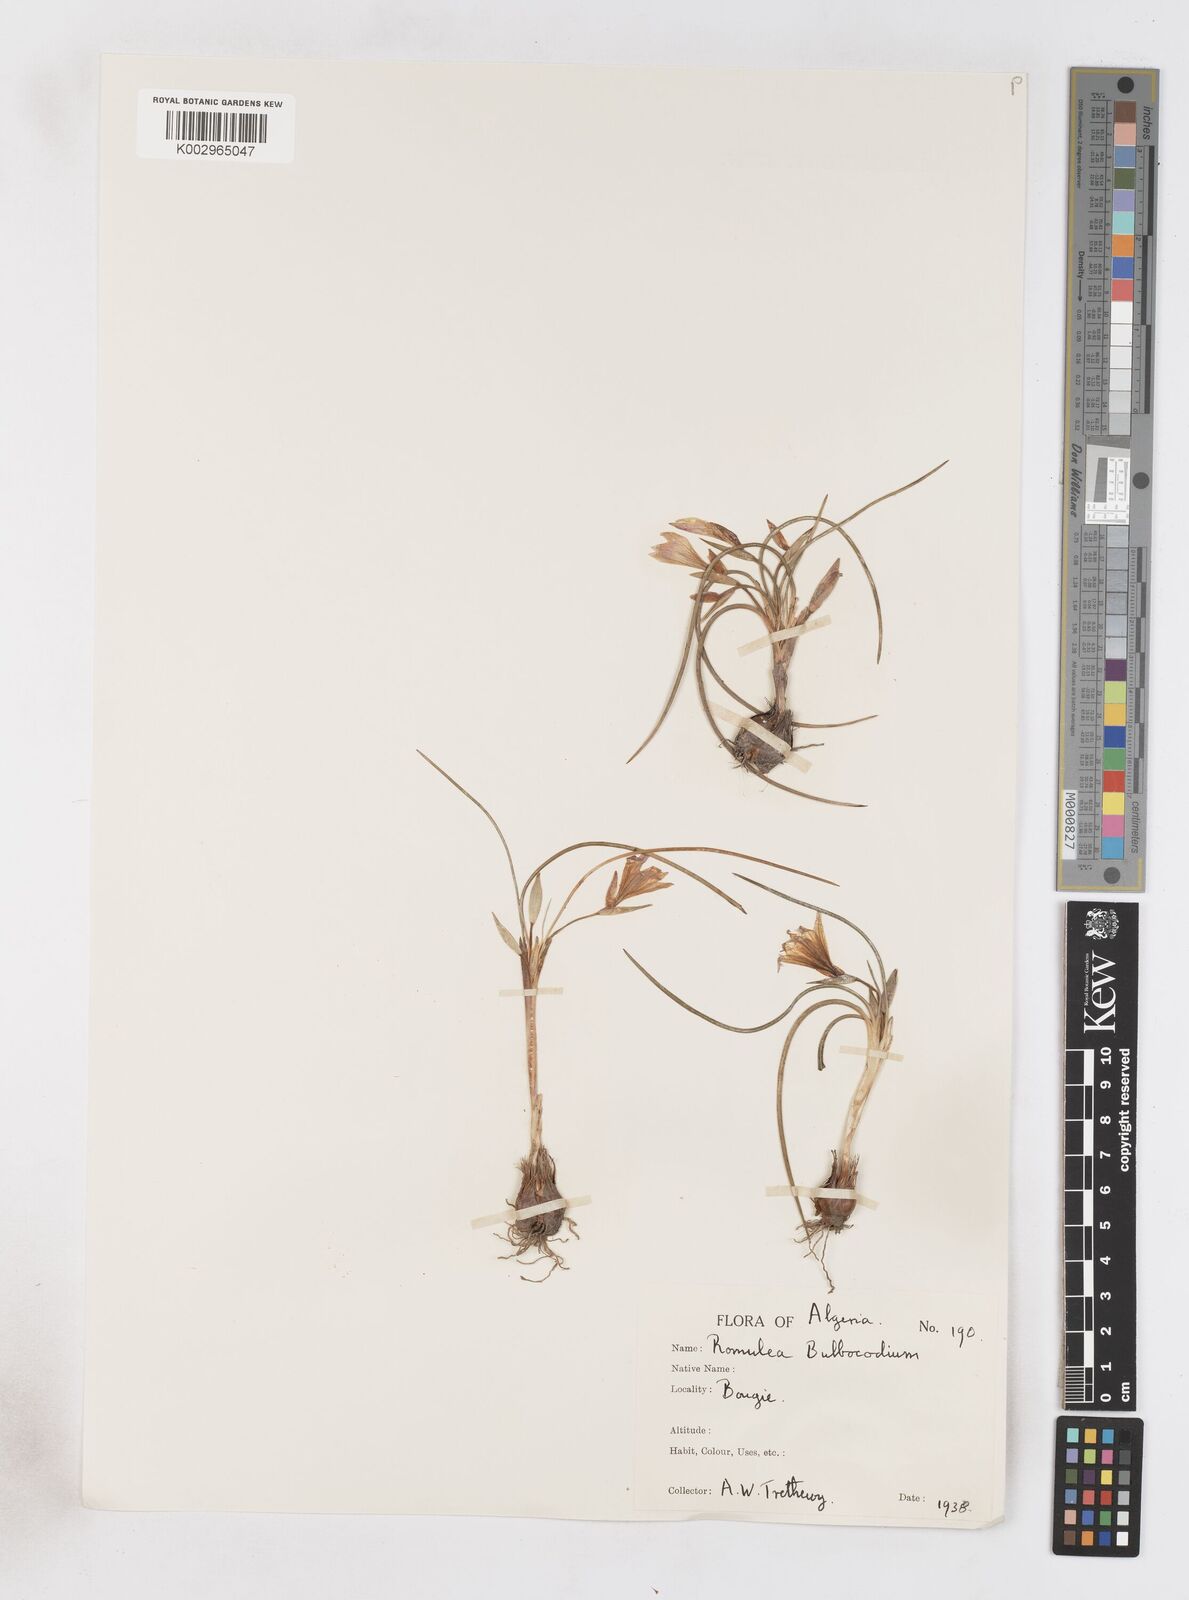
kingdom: Plantae
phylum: Tracheophyta
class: Liliopsida
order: Asparagales
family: Iridaceae
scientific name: Iridaceae
